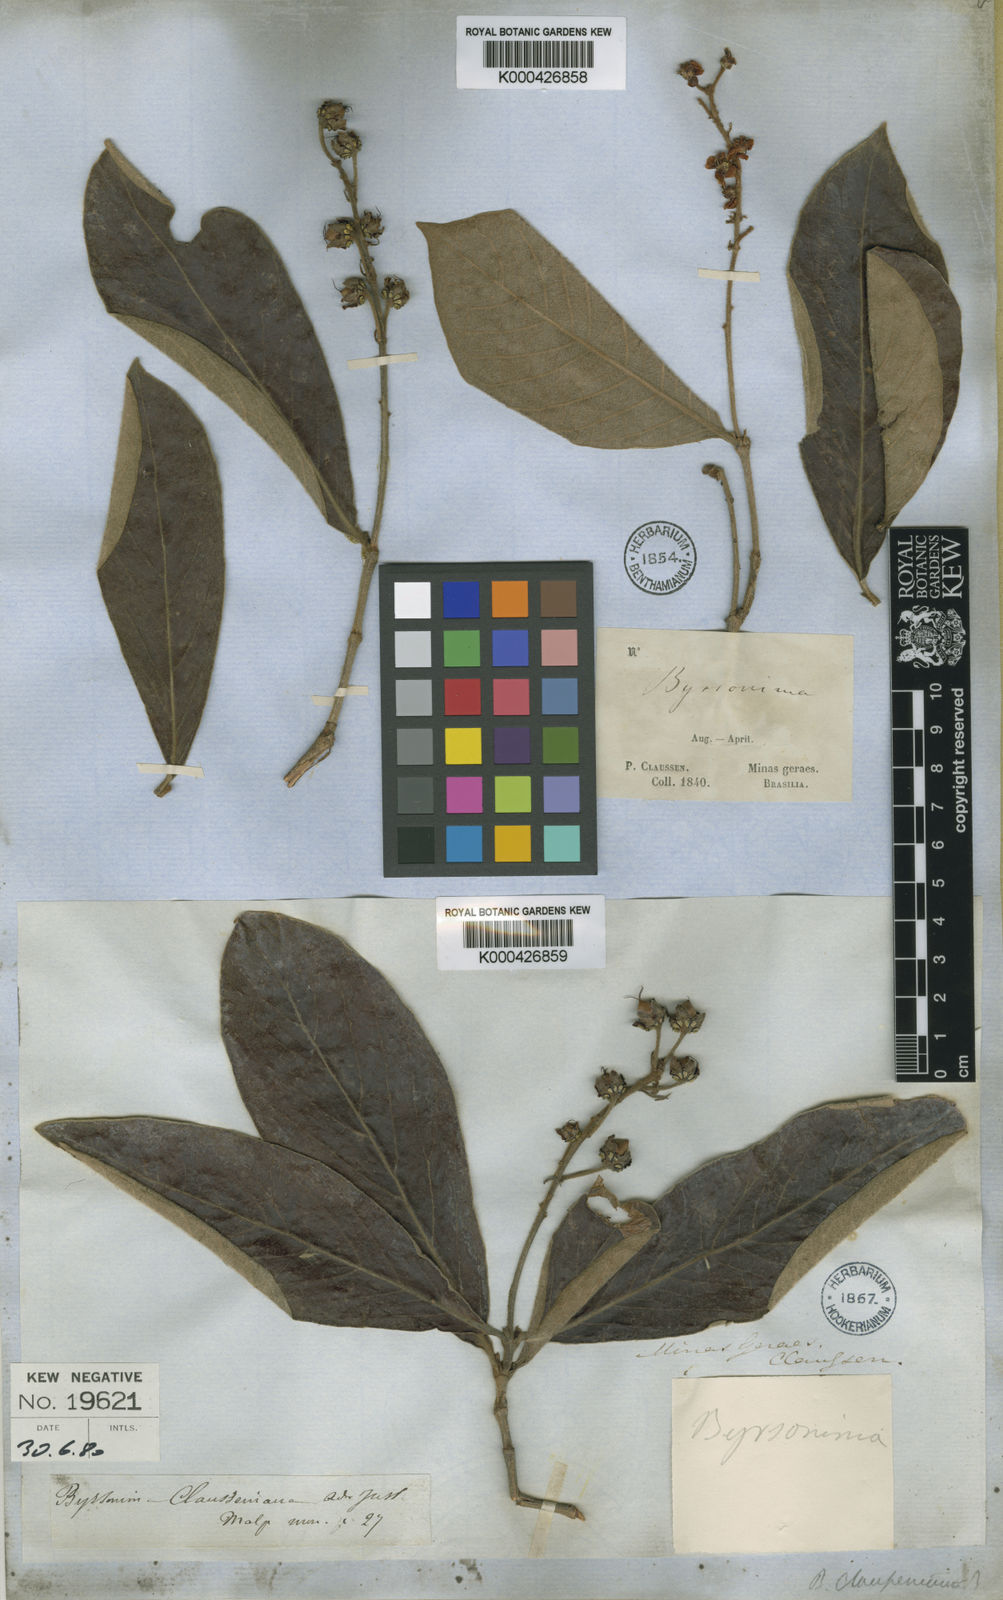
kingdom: Plantae
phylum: Tracheophyta
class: Magnoliopsida
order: Malpighiales
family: Malpighiaceae
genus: Byrsonima
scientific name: Byrsonima clausseniana
